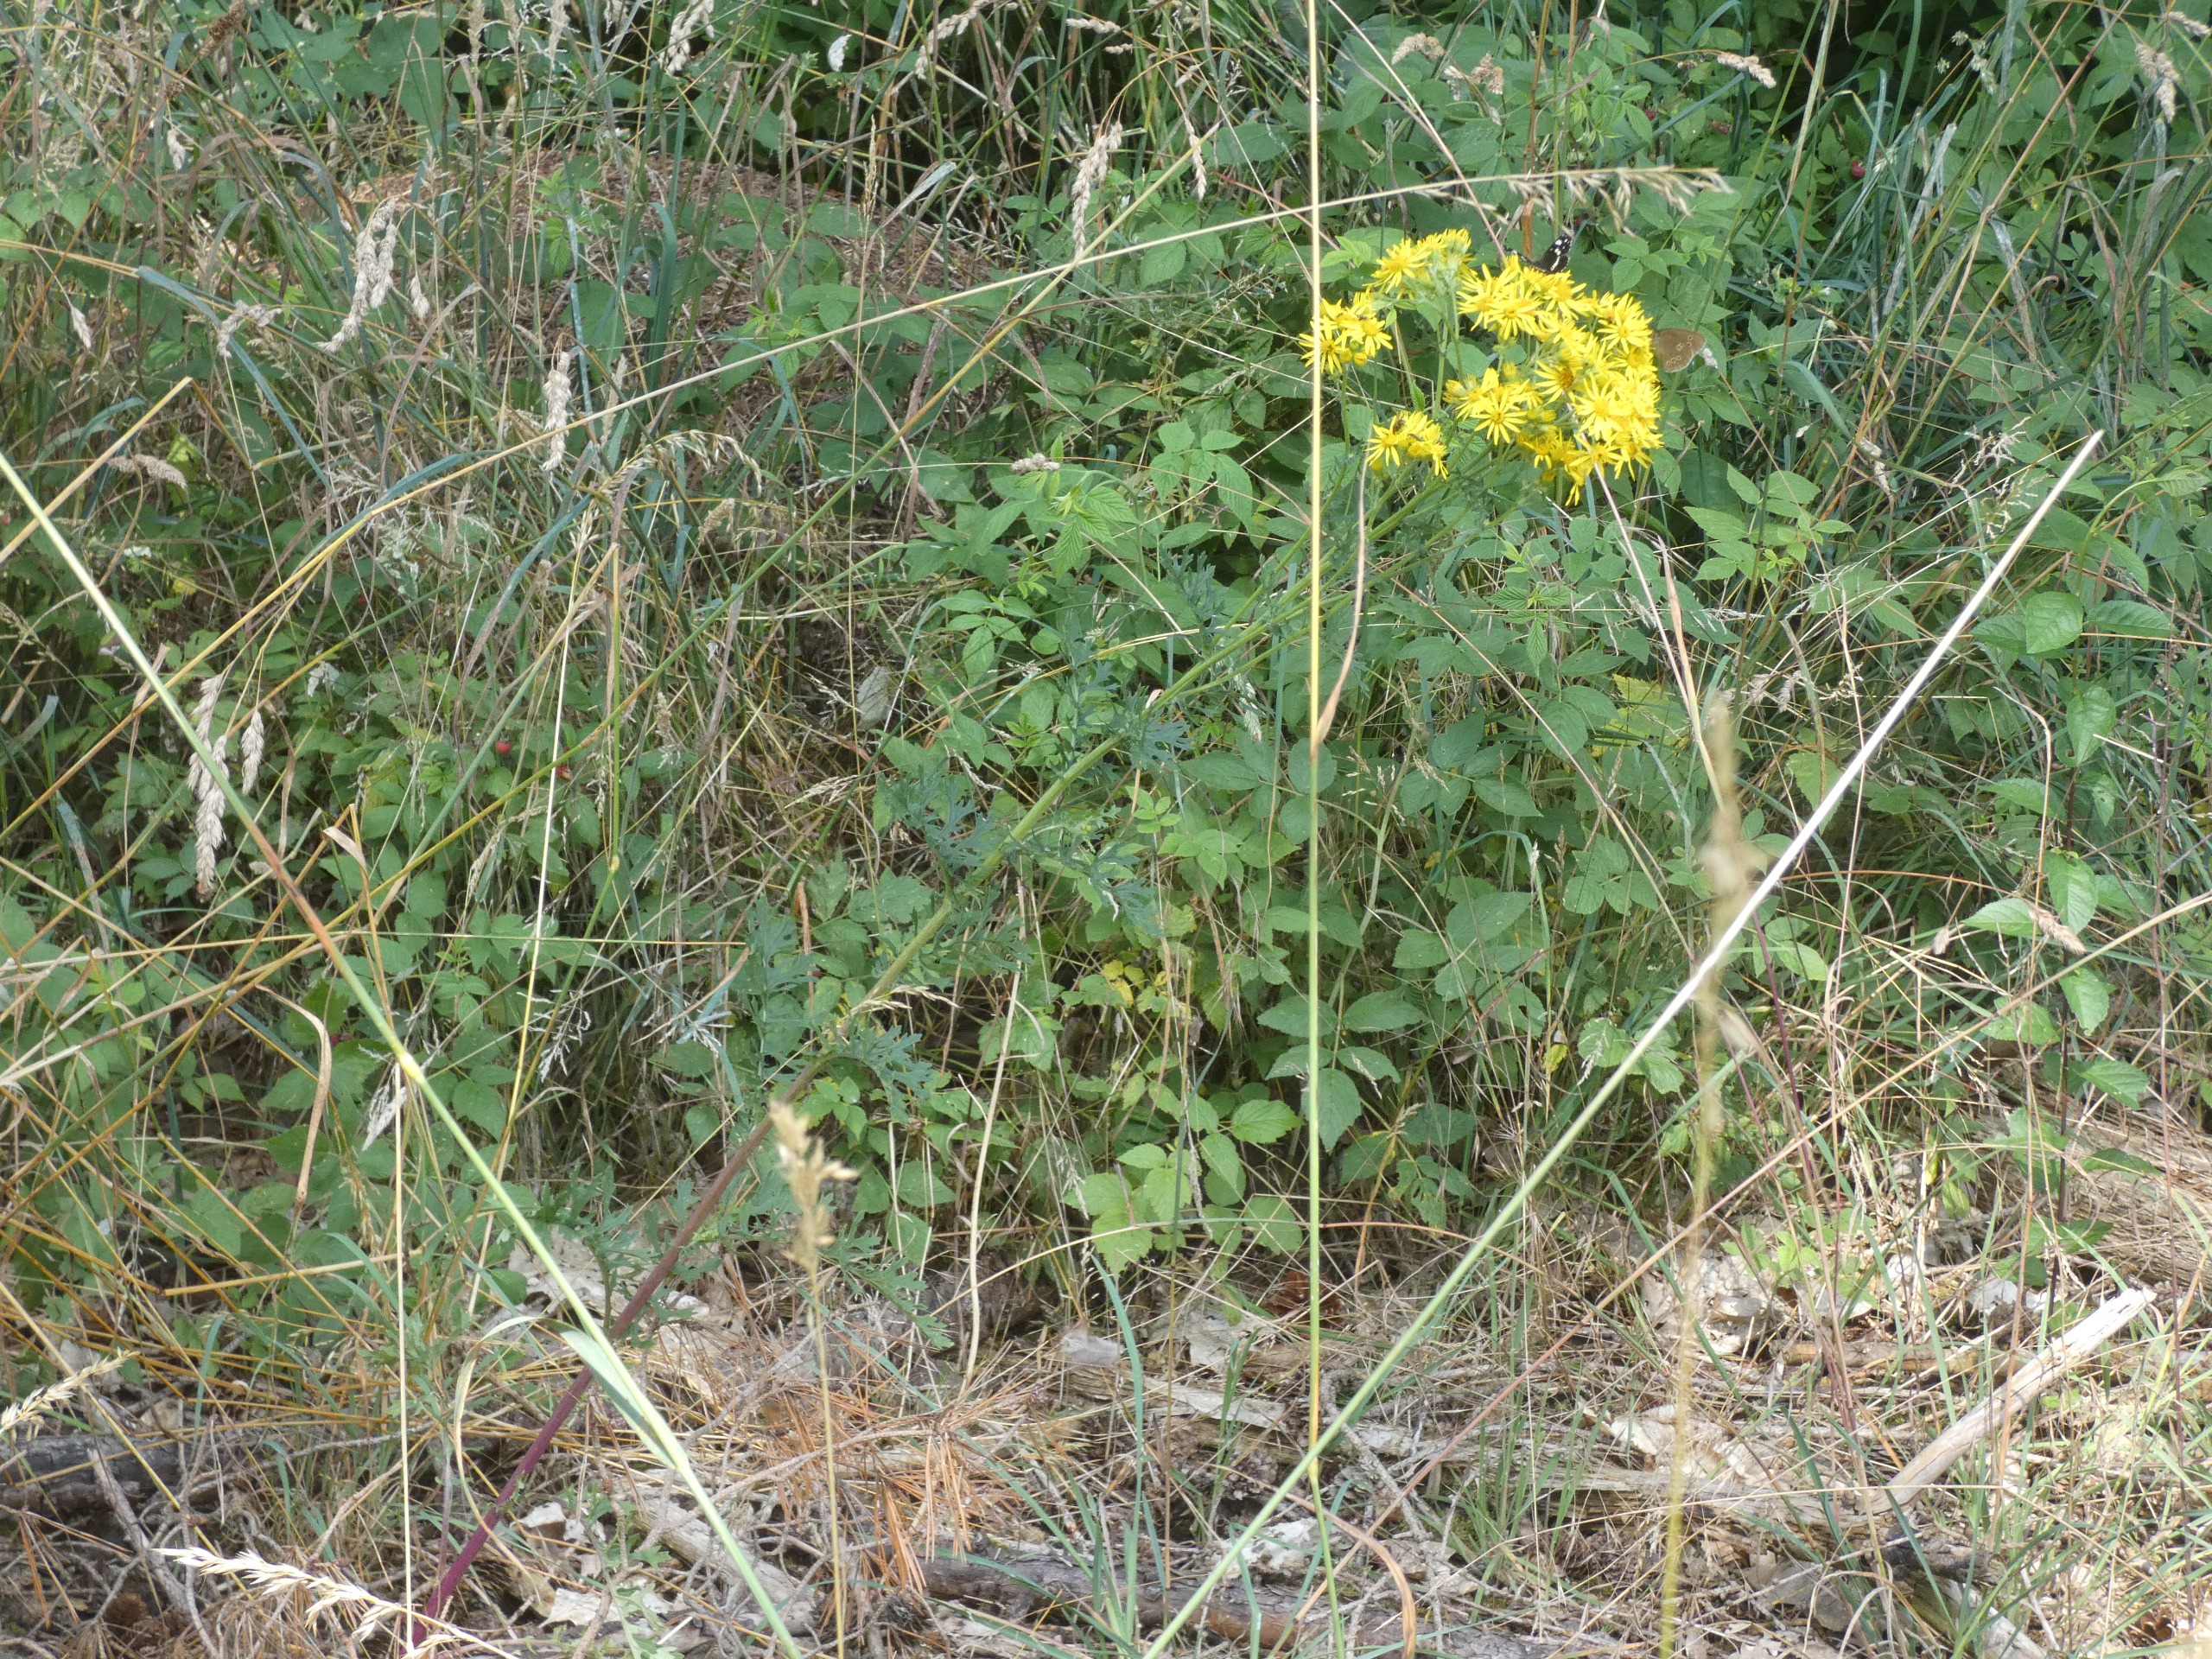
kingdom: Plantae
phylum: Tracheophyta
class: Magnoliopsida
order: Asterales
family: Asteraceae
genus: Jacobaea
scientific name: Jacobaea vulgaris
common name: Eng-brandbæger
